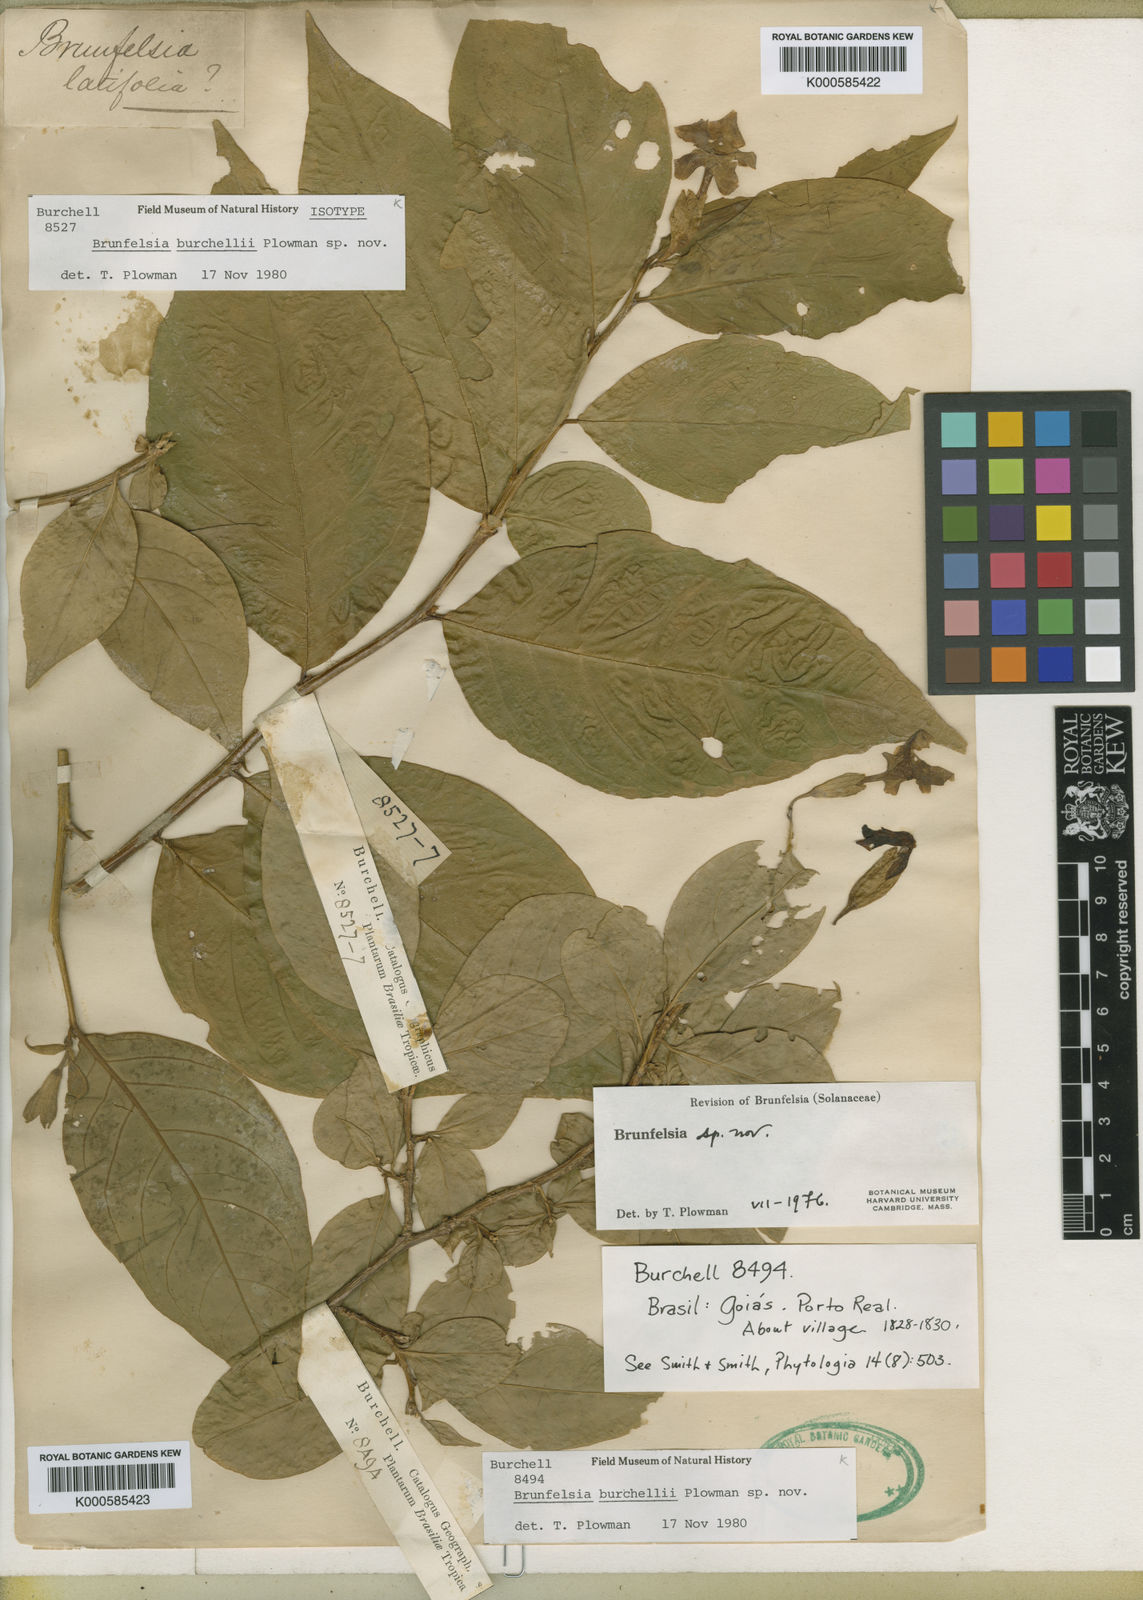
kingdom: Plantae
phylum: Tracheophyta
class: Magnoliopsida
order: Solanales
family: Solanaceae
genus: Brunfelsia
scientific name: Brunfelsia burchellii
